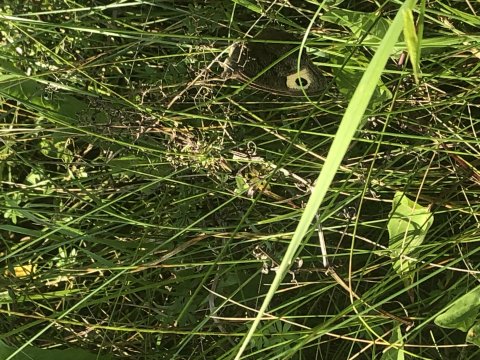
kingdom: Animalia
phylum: Arthropoda
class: Insecta
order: Lepidoptera
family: Nymphalidae
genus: Cercyonis
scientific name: Cercyonis pegala
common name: Common Wood-Nymph
